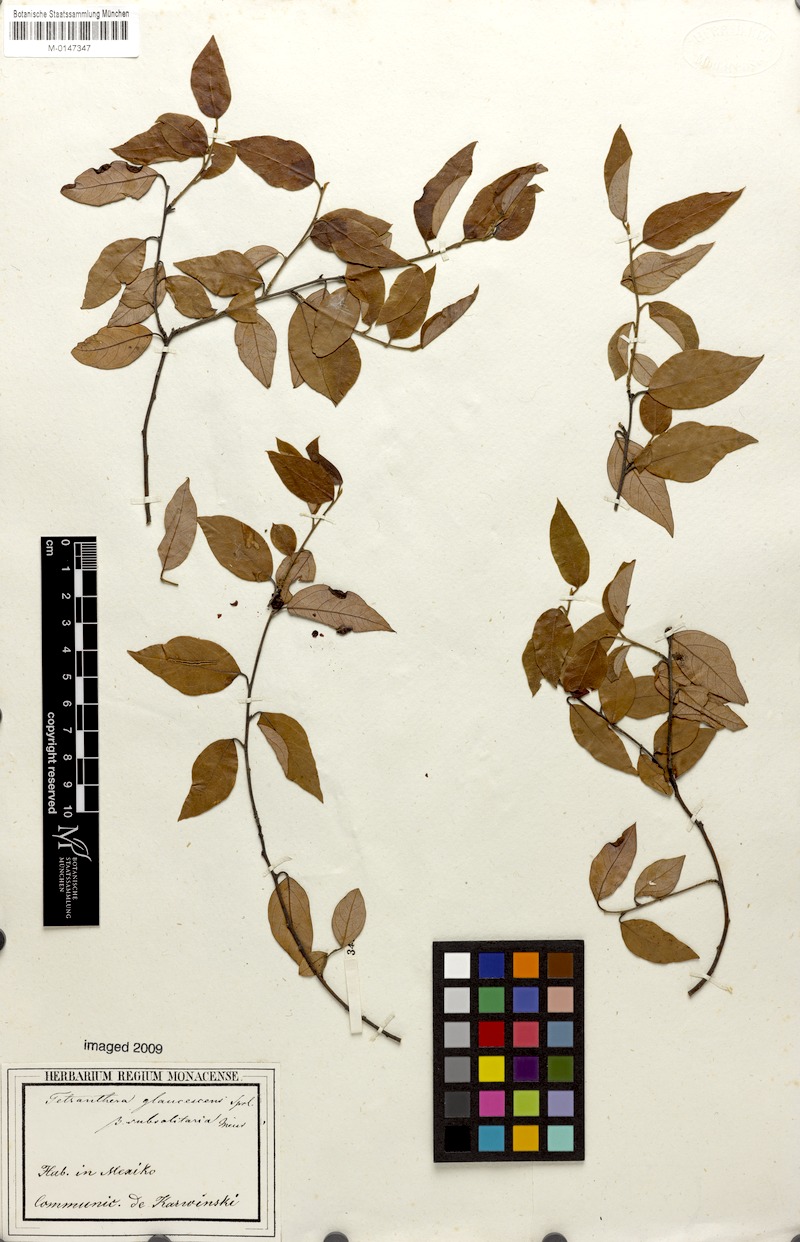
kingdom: Plantae
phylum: Tracheophyta
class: Magnoliopsida
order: Laurales
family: Lauraceae
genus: Licaria
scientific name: Licaria triandra
